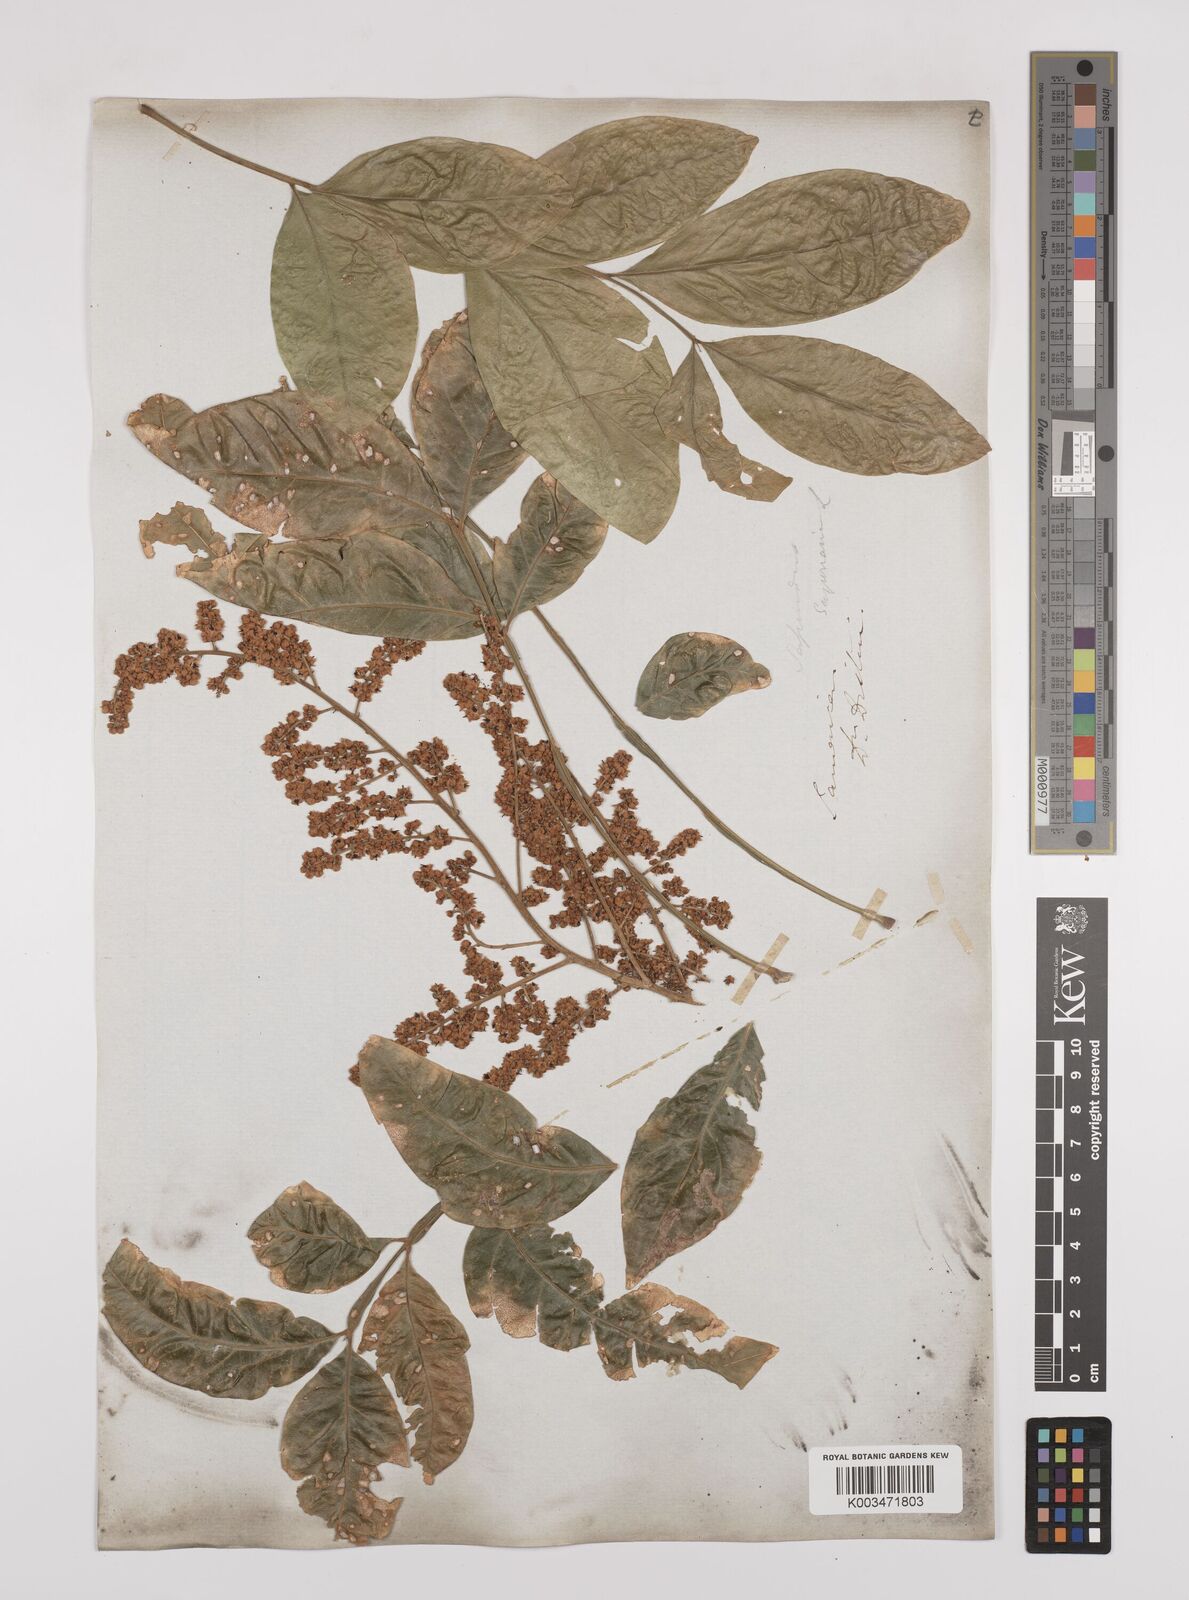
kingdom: Plantae
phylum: Tracheophyta
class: Magnoliopsida
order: Sapindales
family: Sapindaceae
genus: Sapindus
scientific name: Sapindus saponaria
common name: Wingleaf soapberry
